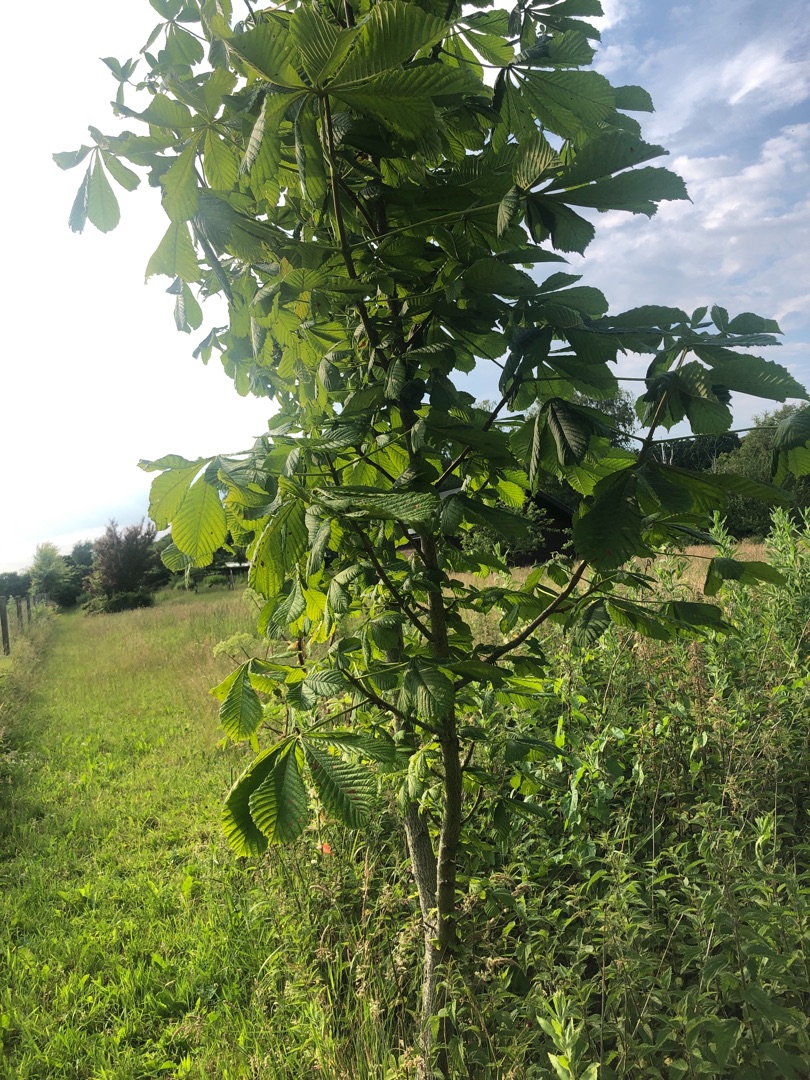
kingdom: Plantae
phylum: Tracheophyta
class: Magnoliopsida
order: Sapindales
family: Sapindaceae
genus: Aesculus
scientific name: Aesculus hippocastanum
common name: Hestekastanie
